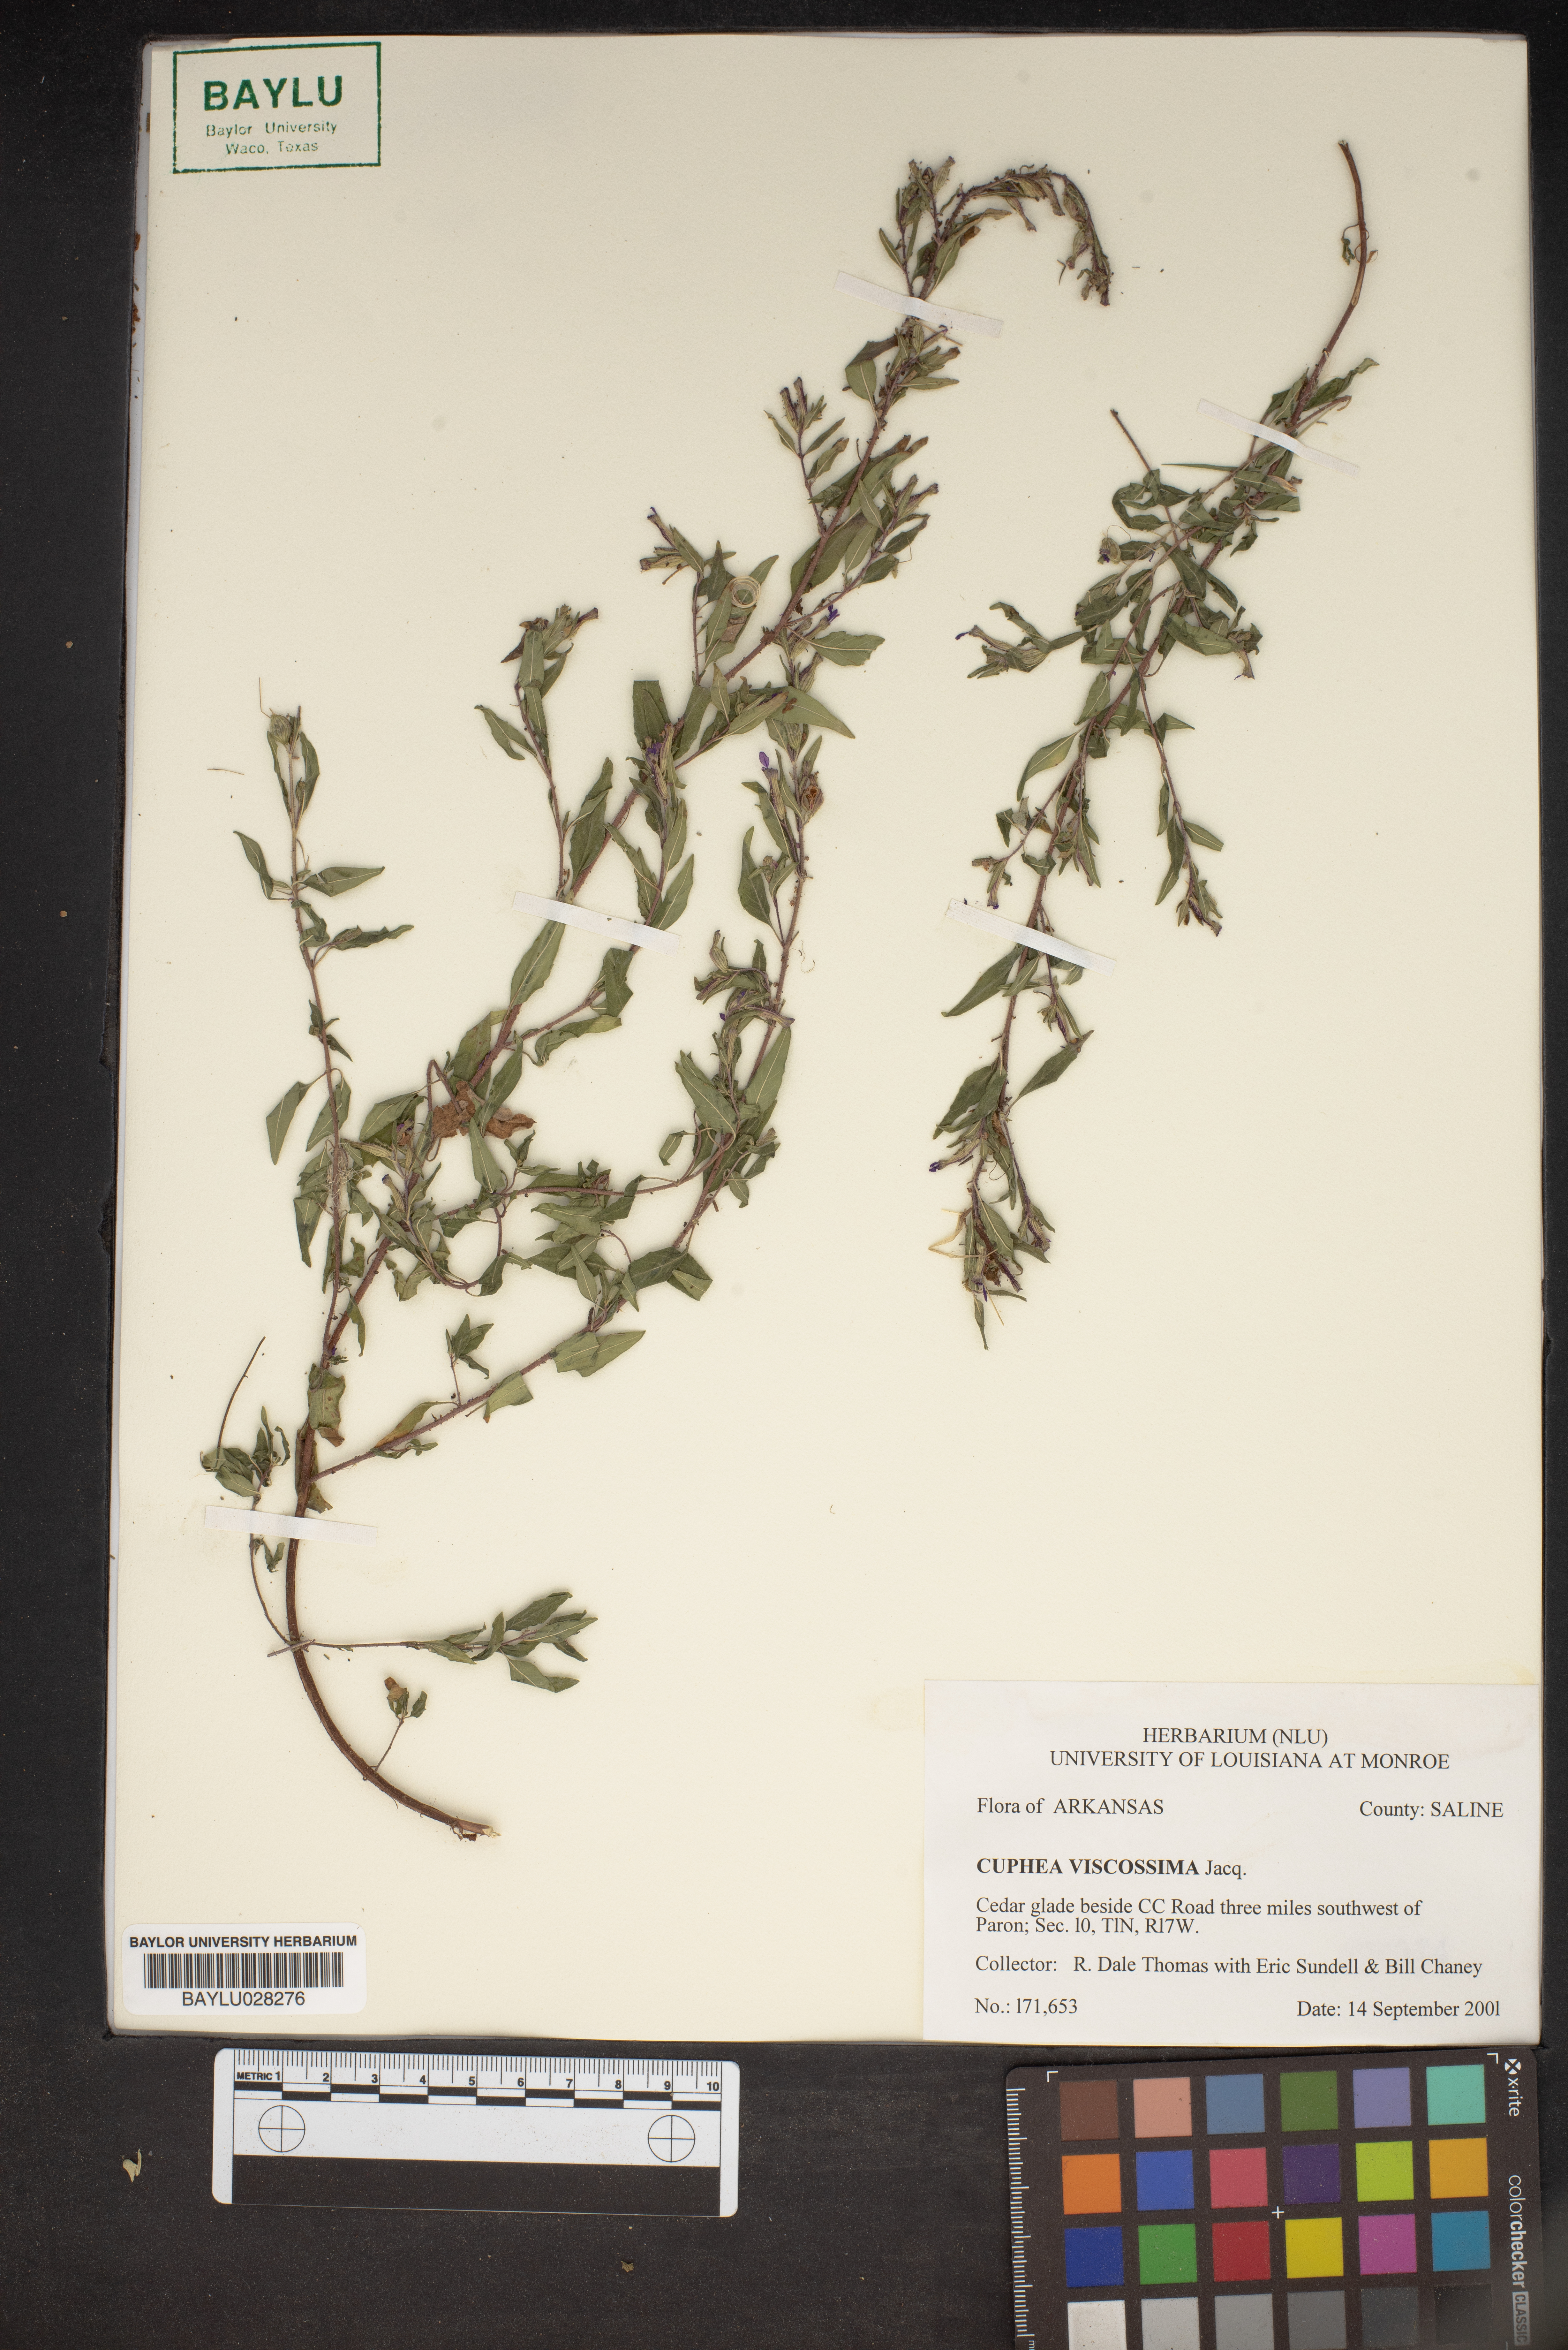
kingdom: Plantae
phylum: Tracheophyta
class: Magnoliopsida
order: Myrtales
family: Lythraceae
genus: Cuphea
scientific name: Cuphea viscosissima
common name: Clammy cuphea
